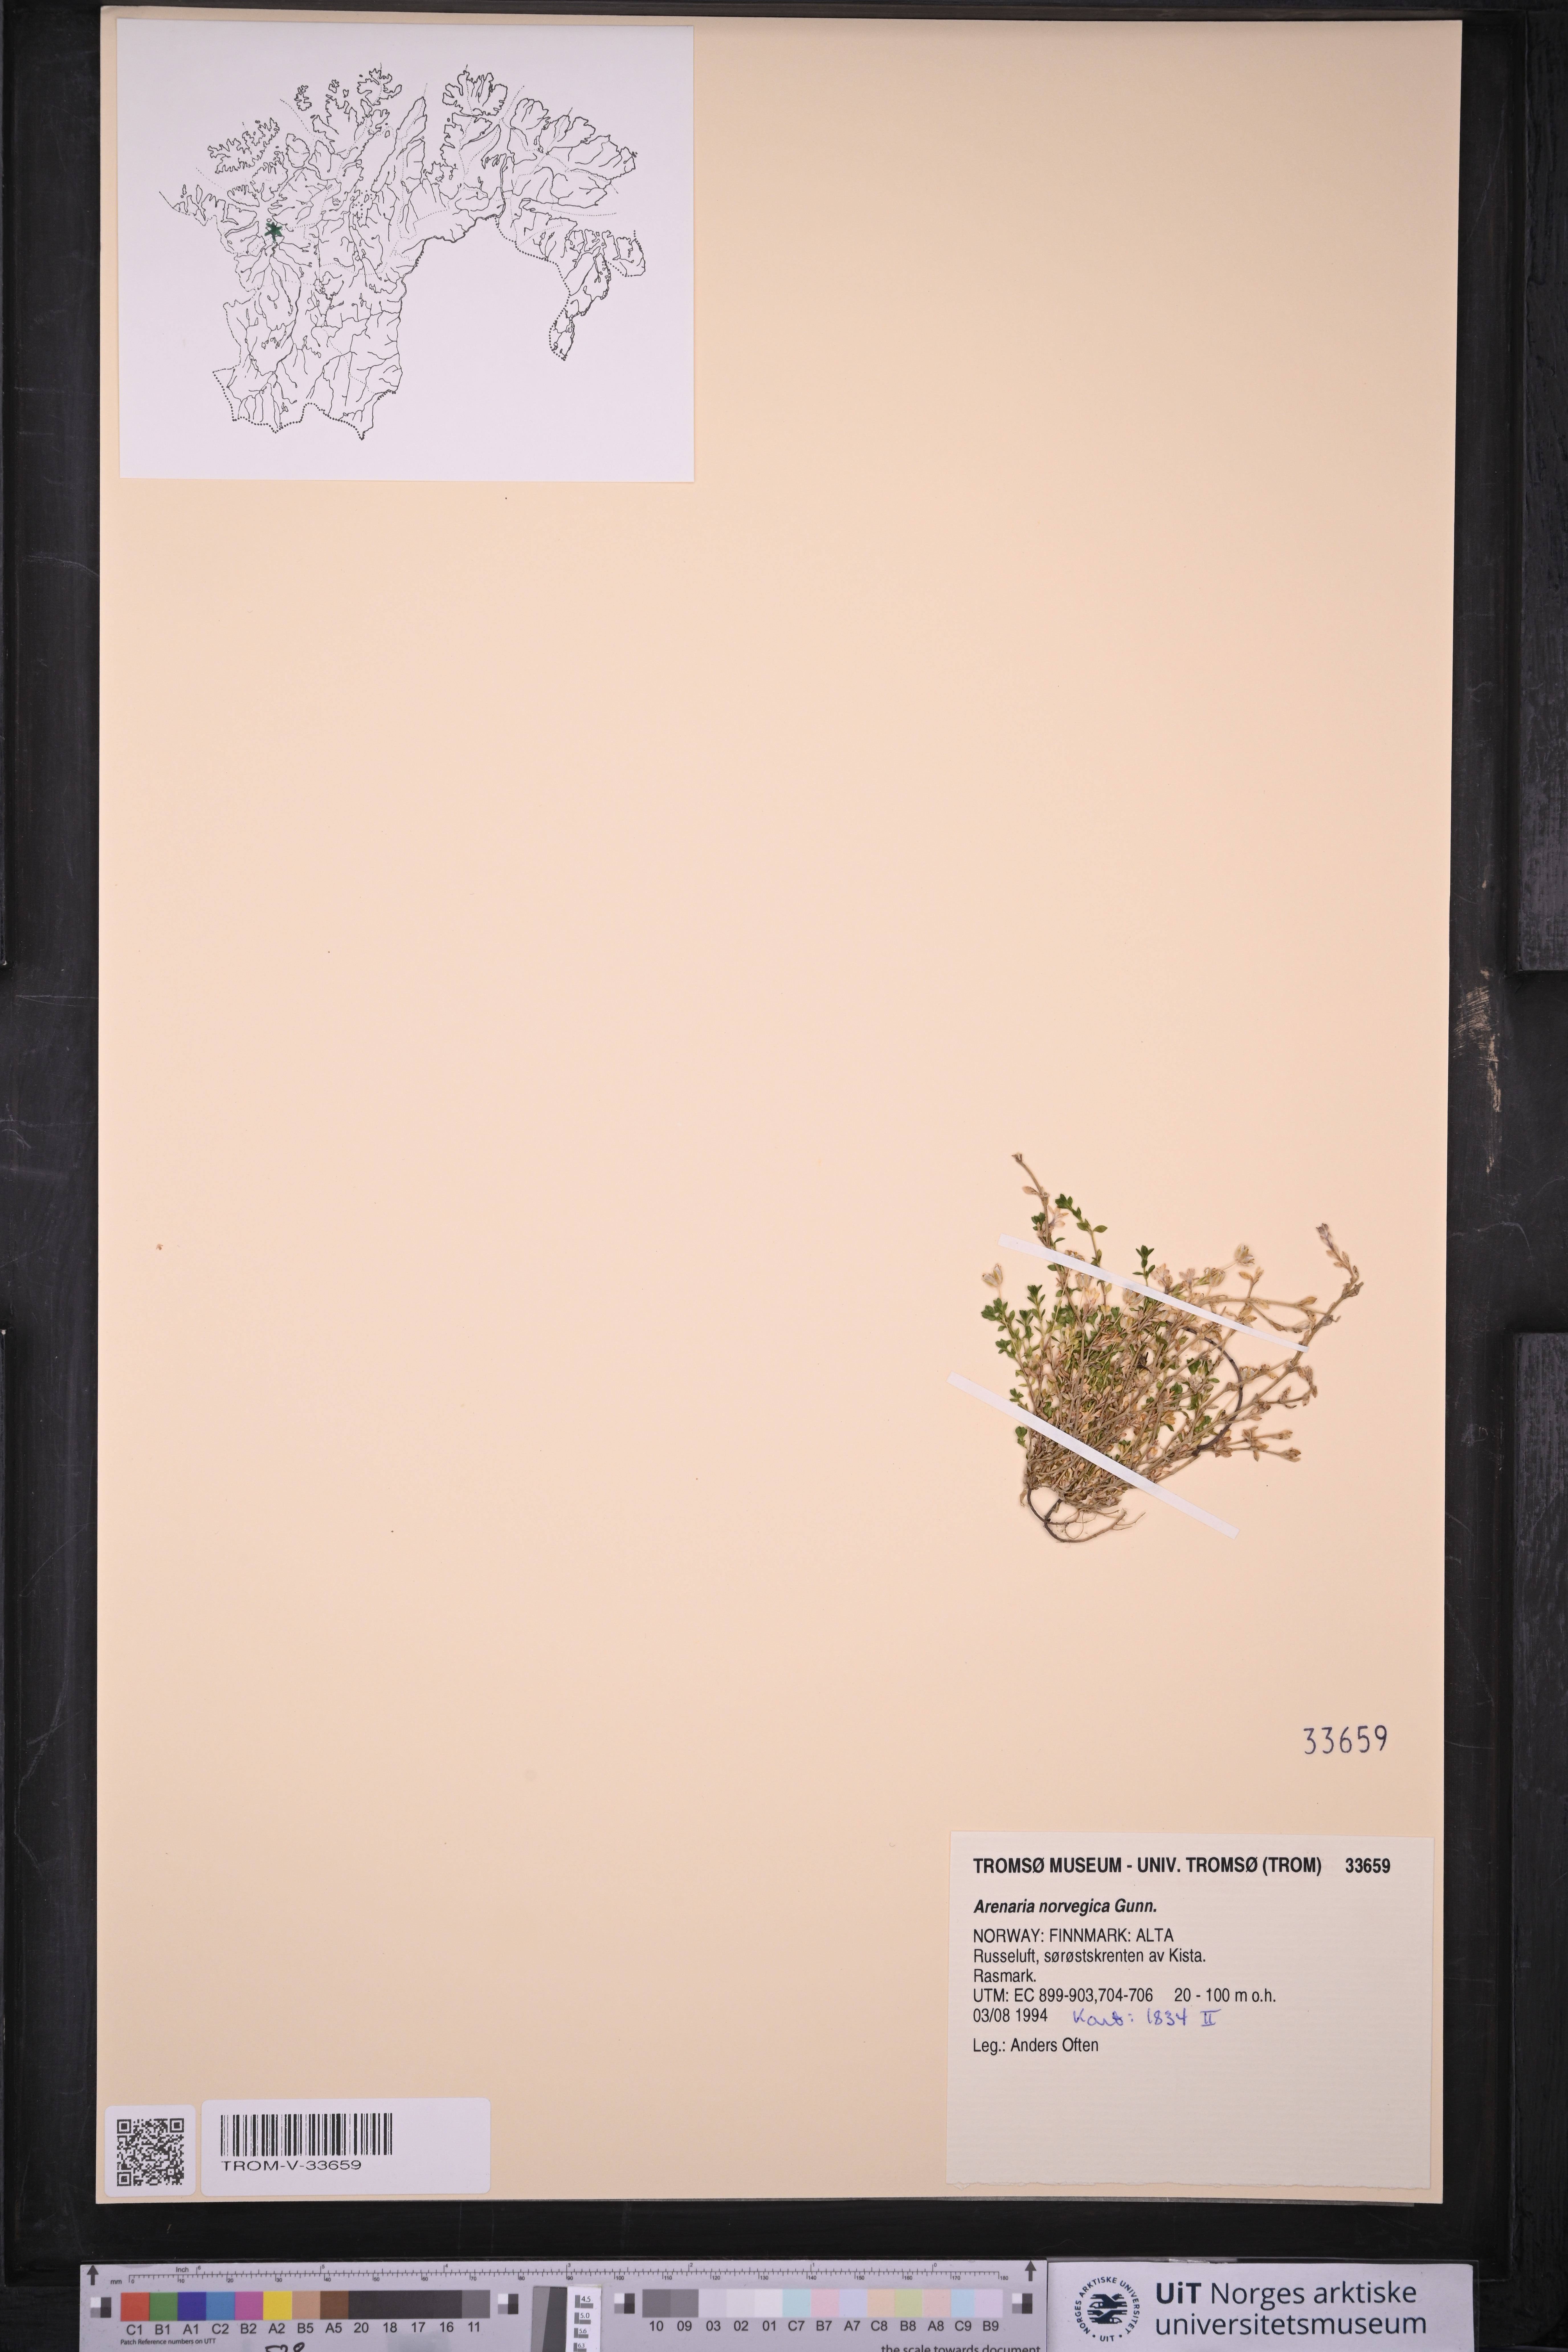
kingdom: Plantae
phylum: Tracheophyta
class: Magnoliopsida
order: Caryophyllales
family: Caryophyllaceae
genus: Arenaria
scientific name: Arenaria norvegica
